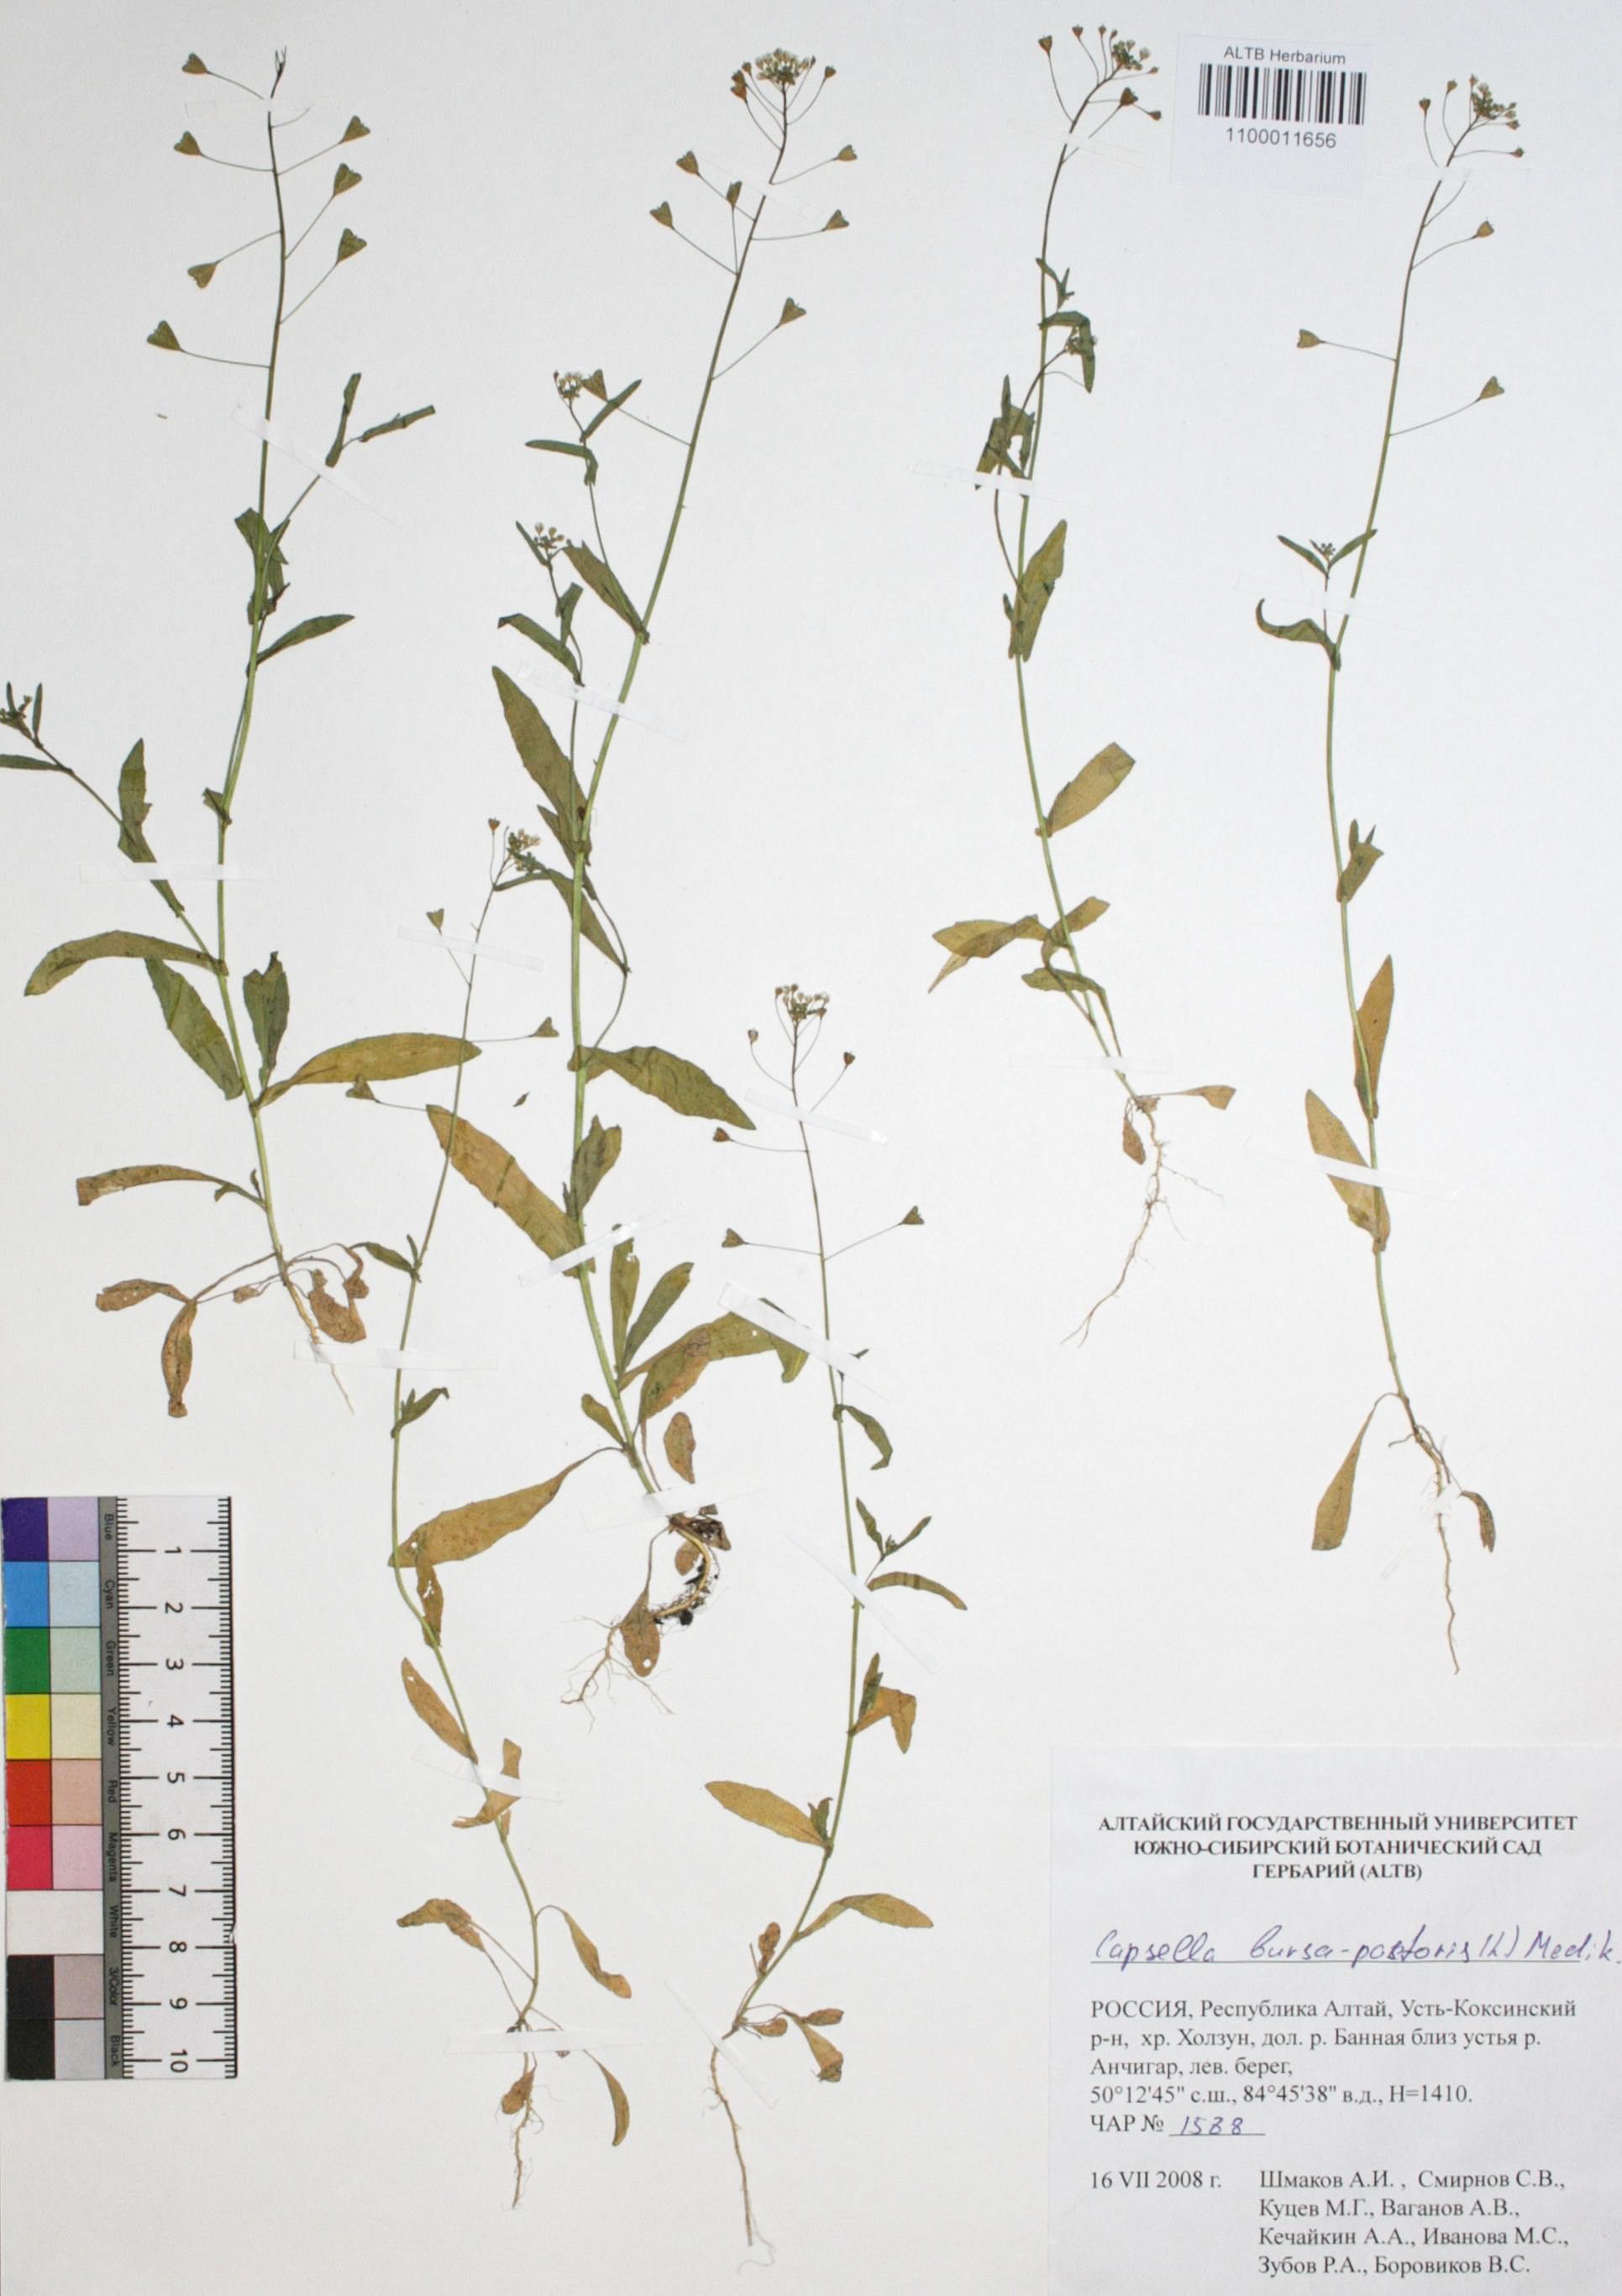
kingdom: Plantae
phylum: Tracheophyta
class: Magnoliopsida
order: Brassicales
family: Brassicaceae
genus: Capsella
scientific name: Capsella bursa-pastoris
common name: Shepherd's purse
